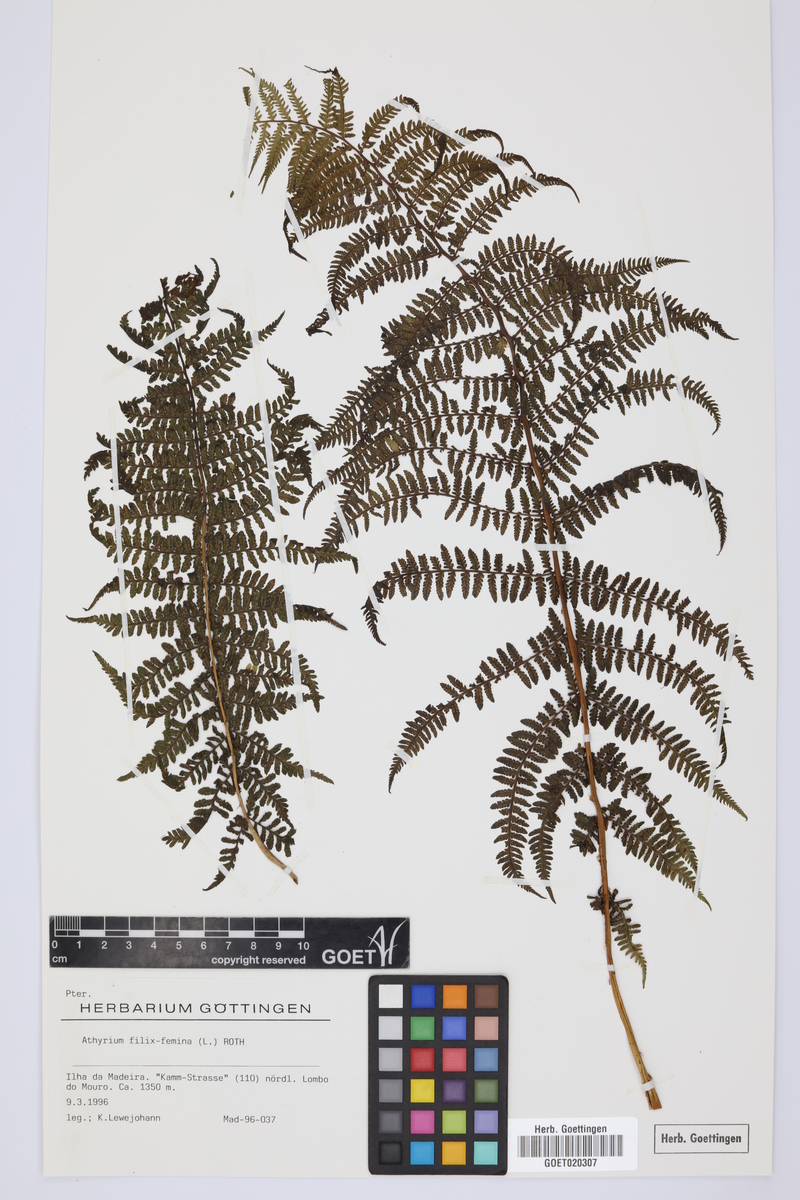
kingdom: Plantae
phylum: Tracheophyta
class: Polypodiopsida
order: Polypodiales
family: Athyriaceae
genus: Athyrium
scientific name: Athyrium filix-femina
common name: Lady fern
